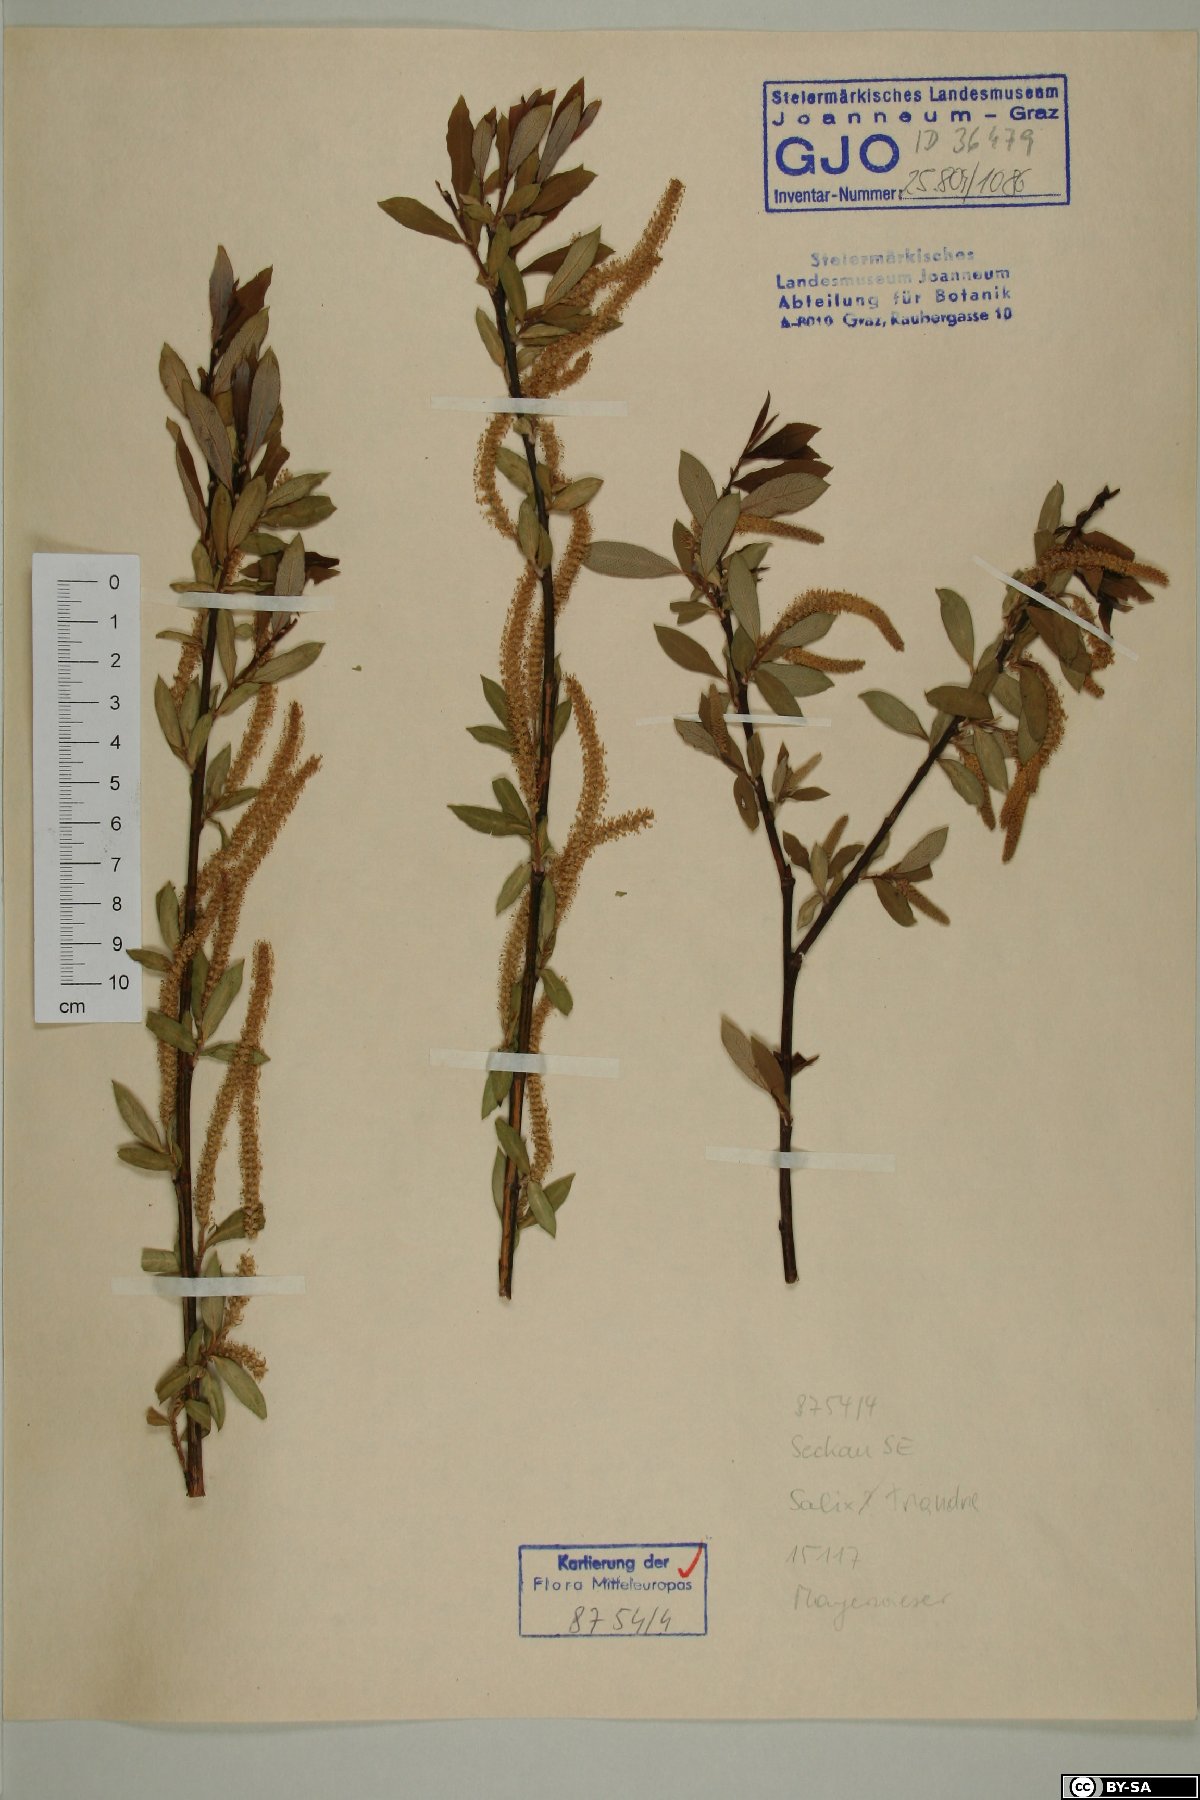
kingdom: Plantae
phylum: Tracheophyta
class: Magnoliopsida
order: Malpighiales
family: Salicaceae
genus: Salix
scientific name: Salix triandra
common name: Almond willow
